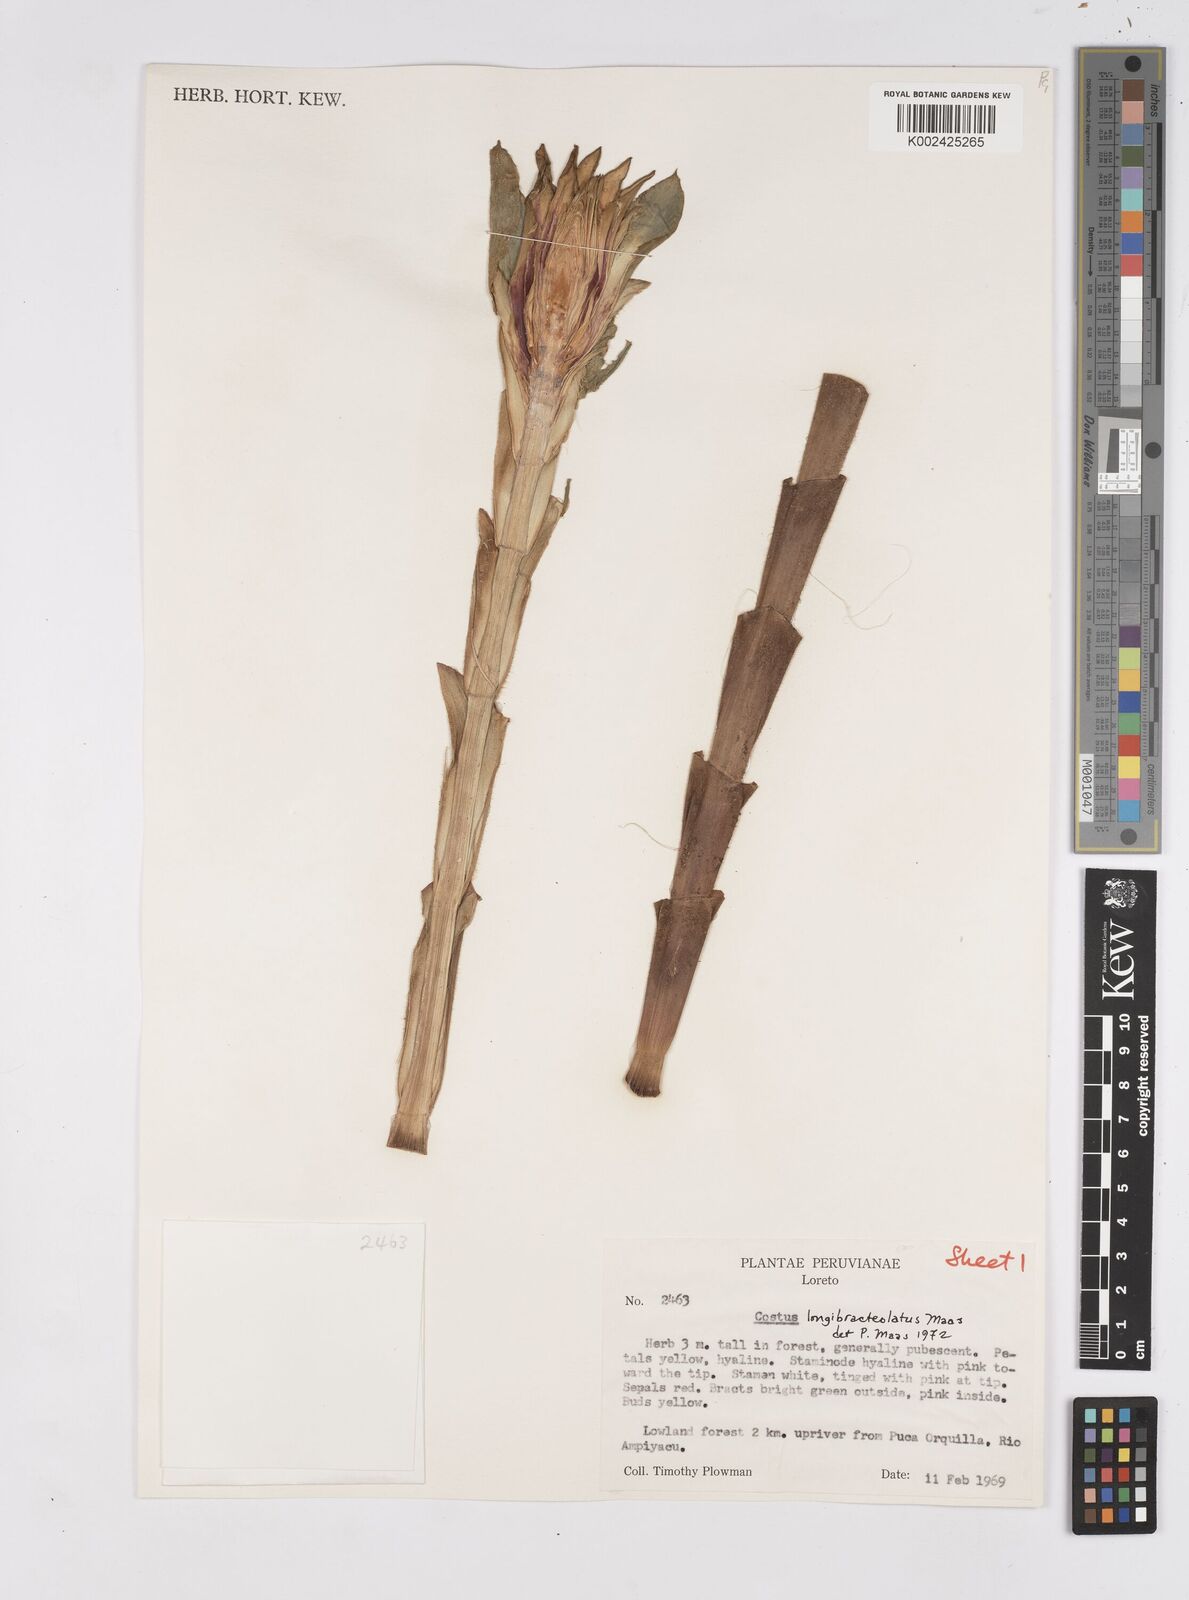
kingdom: Plantae
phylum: Tracheophyta
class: Liliopsida
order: Zingiberales
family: Costaceae
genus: Costus
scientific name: Costus longibracteolatus
